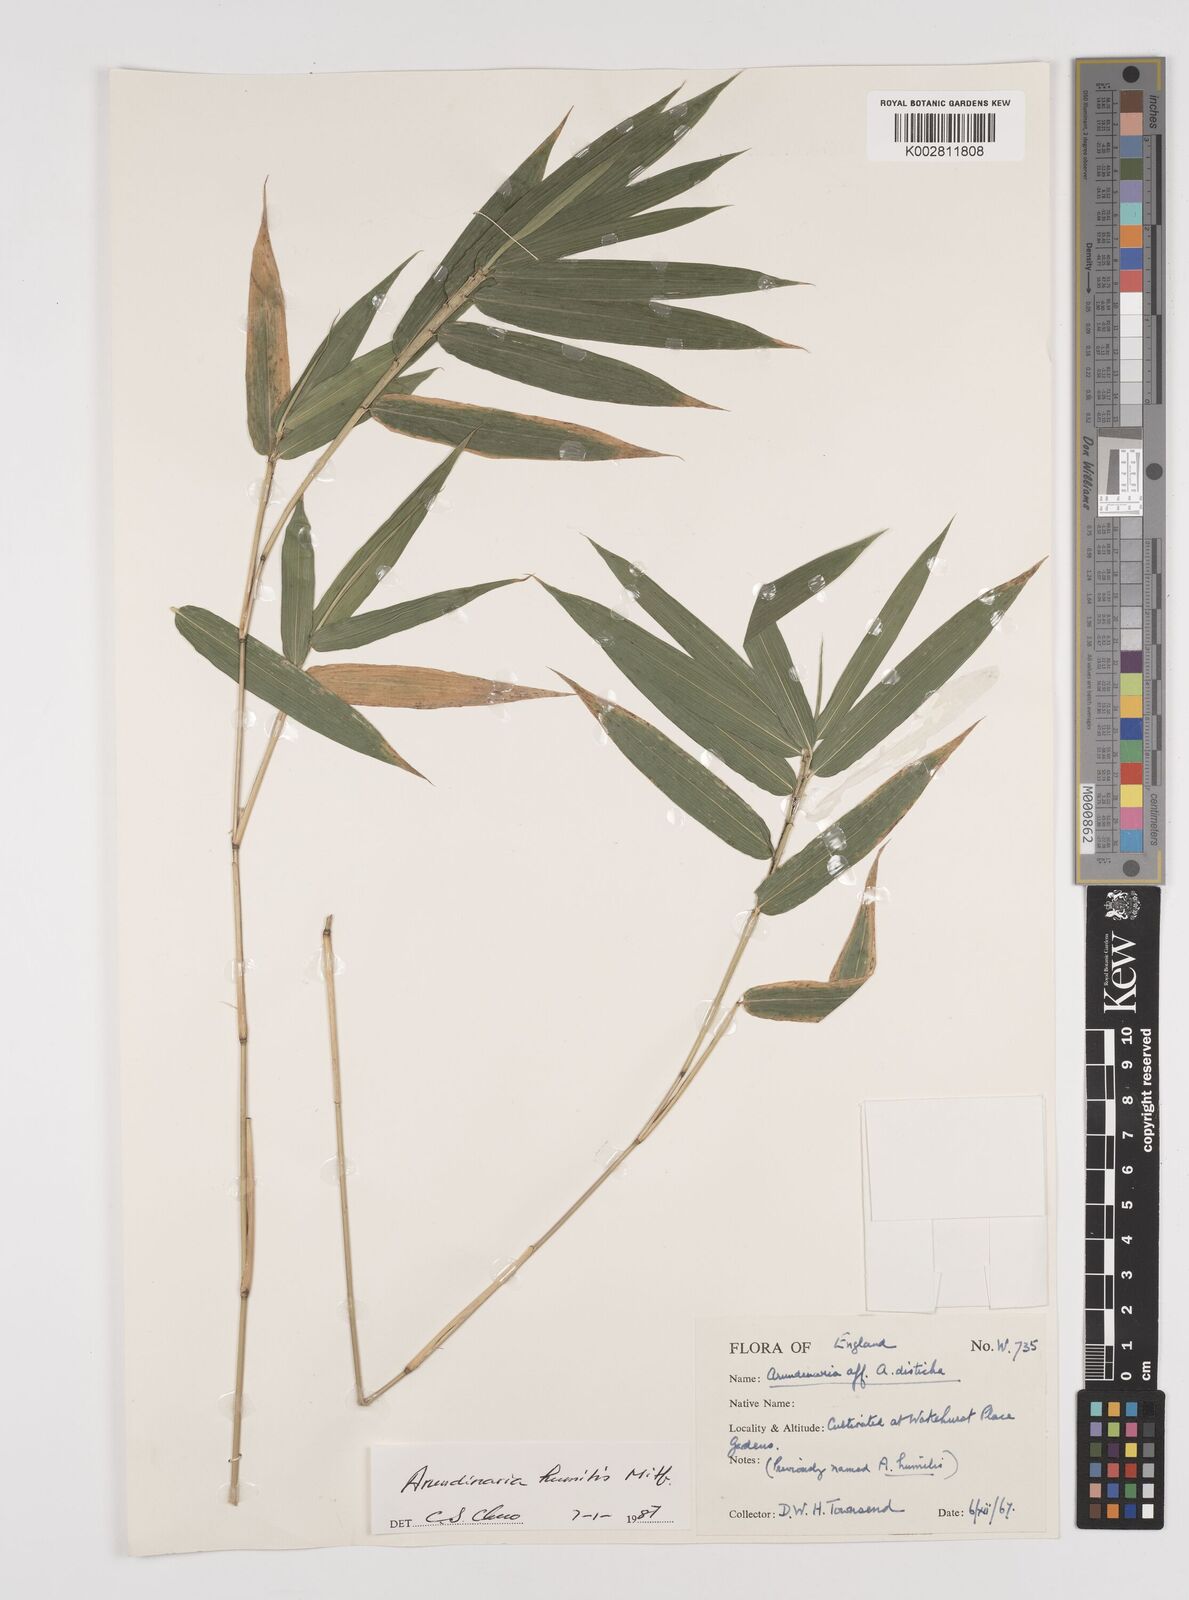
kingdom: Plantae
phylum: Tracheophyta
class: Liliopsida
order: Poales
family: Poaceae
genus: Pseudosasa
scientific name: Pseudosasa humilis
